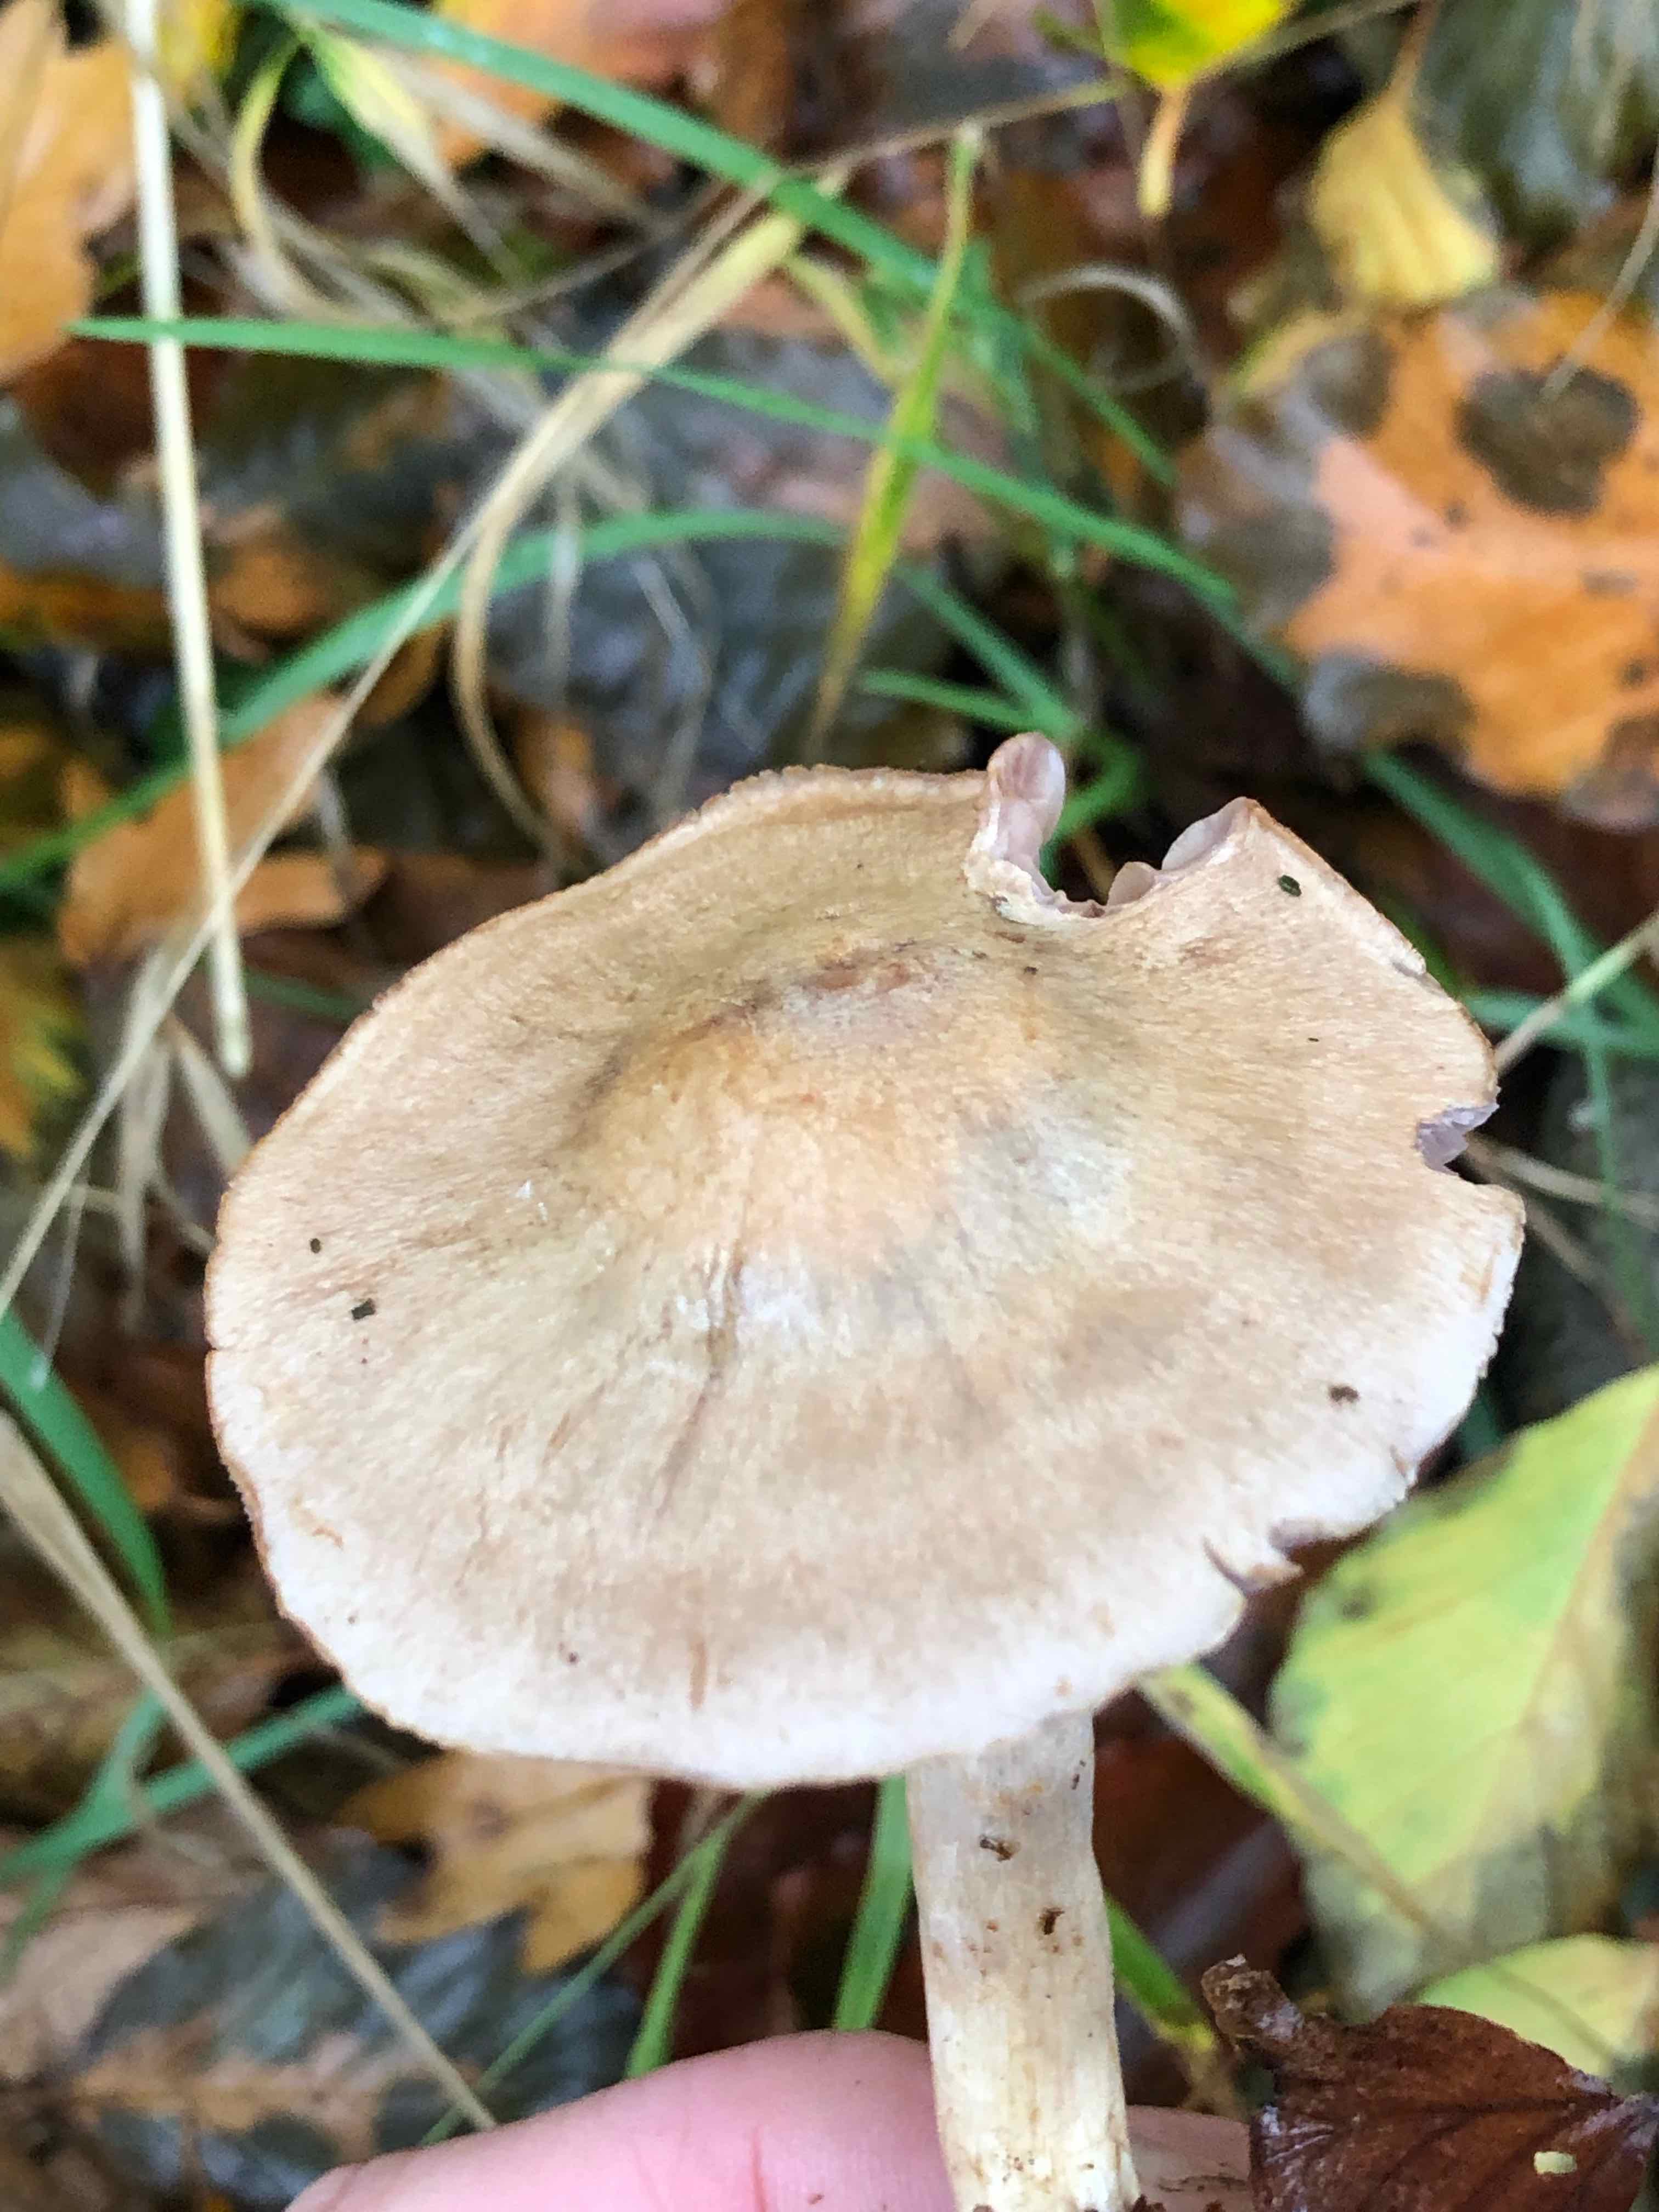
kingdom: Fungi
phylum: Basidiomycota
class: Agaricomycetes
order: Agaricales
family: Cortinariaceae
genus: Cortinarius
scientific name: Cortinarius
